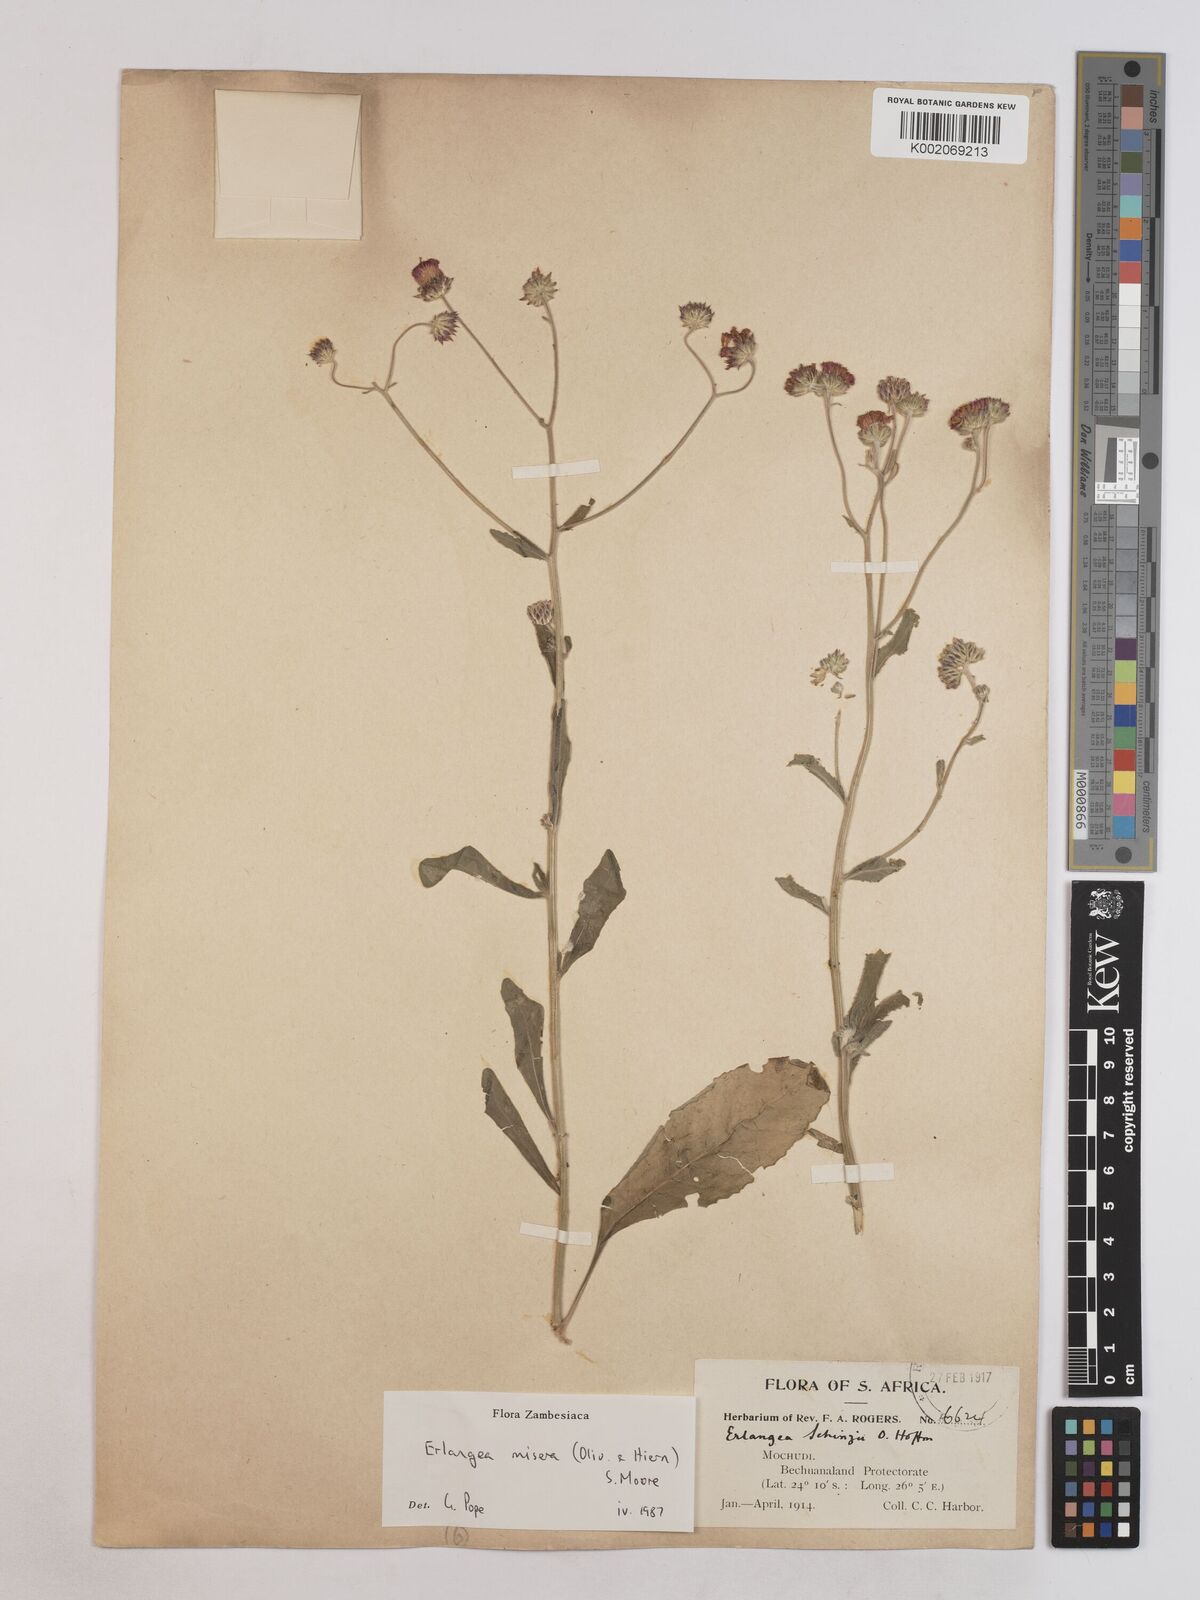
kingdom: Plantae
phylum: Tracheophyta
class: Magnoliopsida
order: Asterales
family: Asteraceae
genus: Erlangea
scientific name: Erlangea misera
